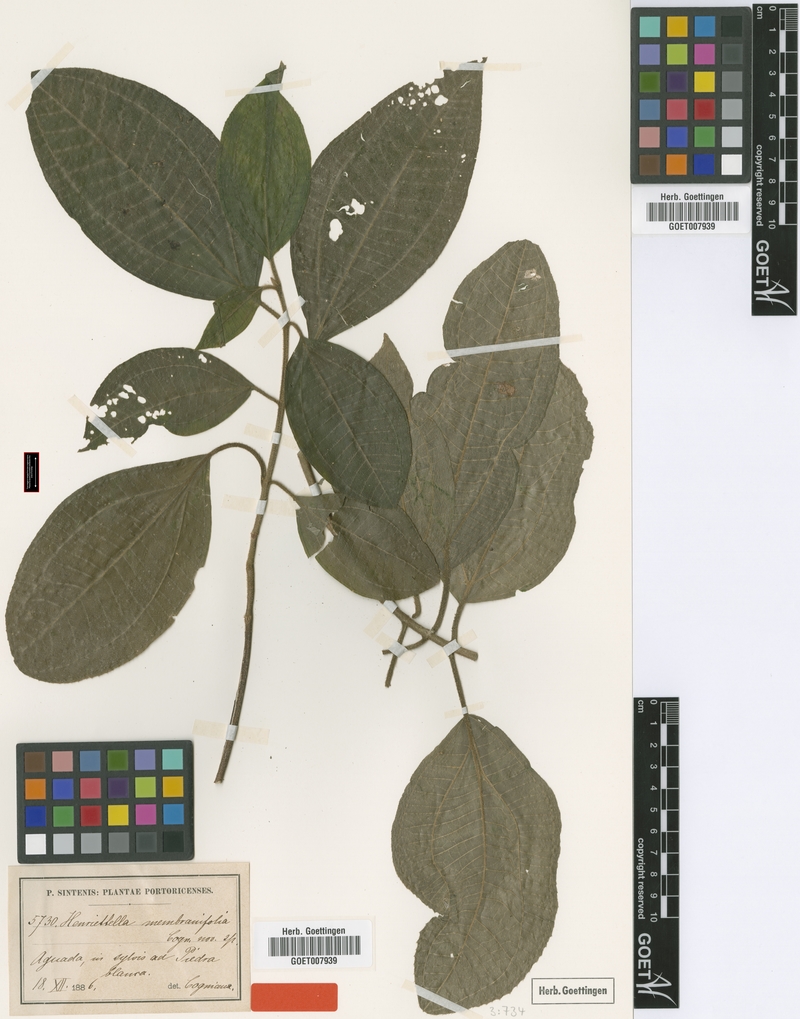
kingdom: Plantae
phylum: Tracheophyta
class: Magnoliopsida
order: Myrtales
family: Melastomataceae
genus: Henriettea
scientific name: Henriettea membranifolia
